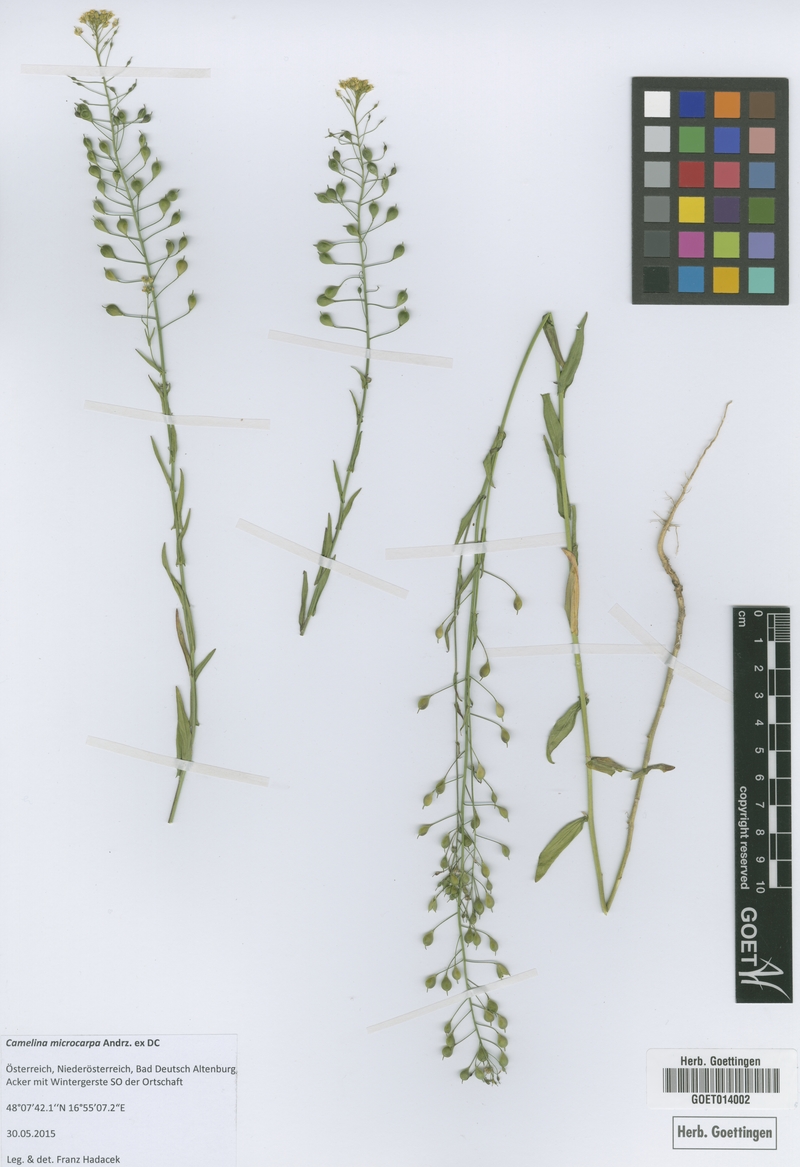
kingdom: Plantae
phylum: Tracheophyta
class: Magnoliopsida
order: Brassicales
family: Brassicaceae
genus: Camelina
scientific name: Camelina microcarpa
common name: Lesser gold-of-pleasure
